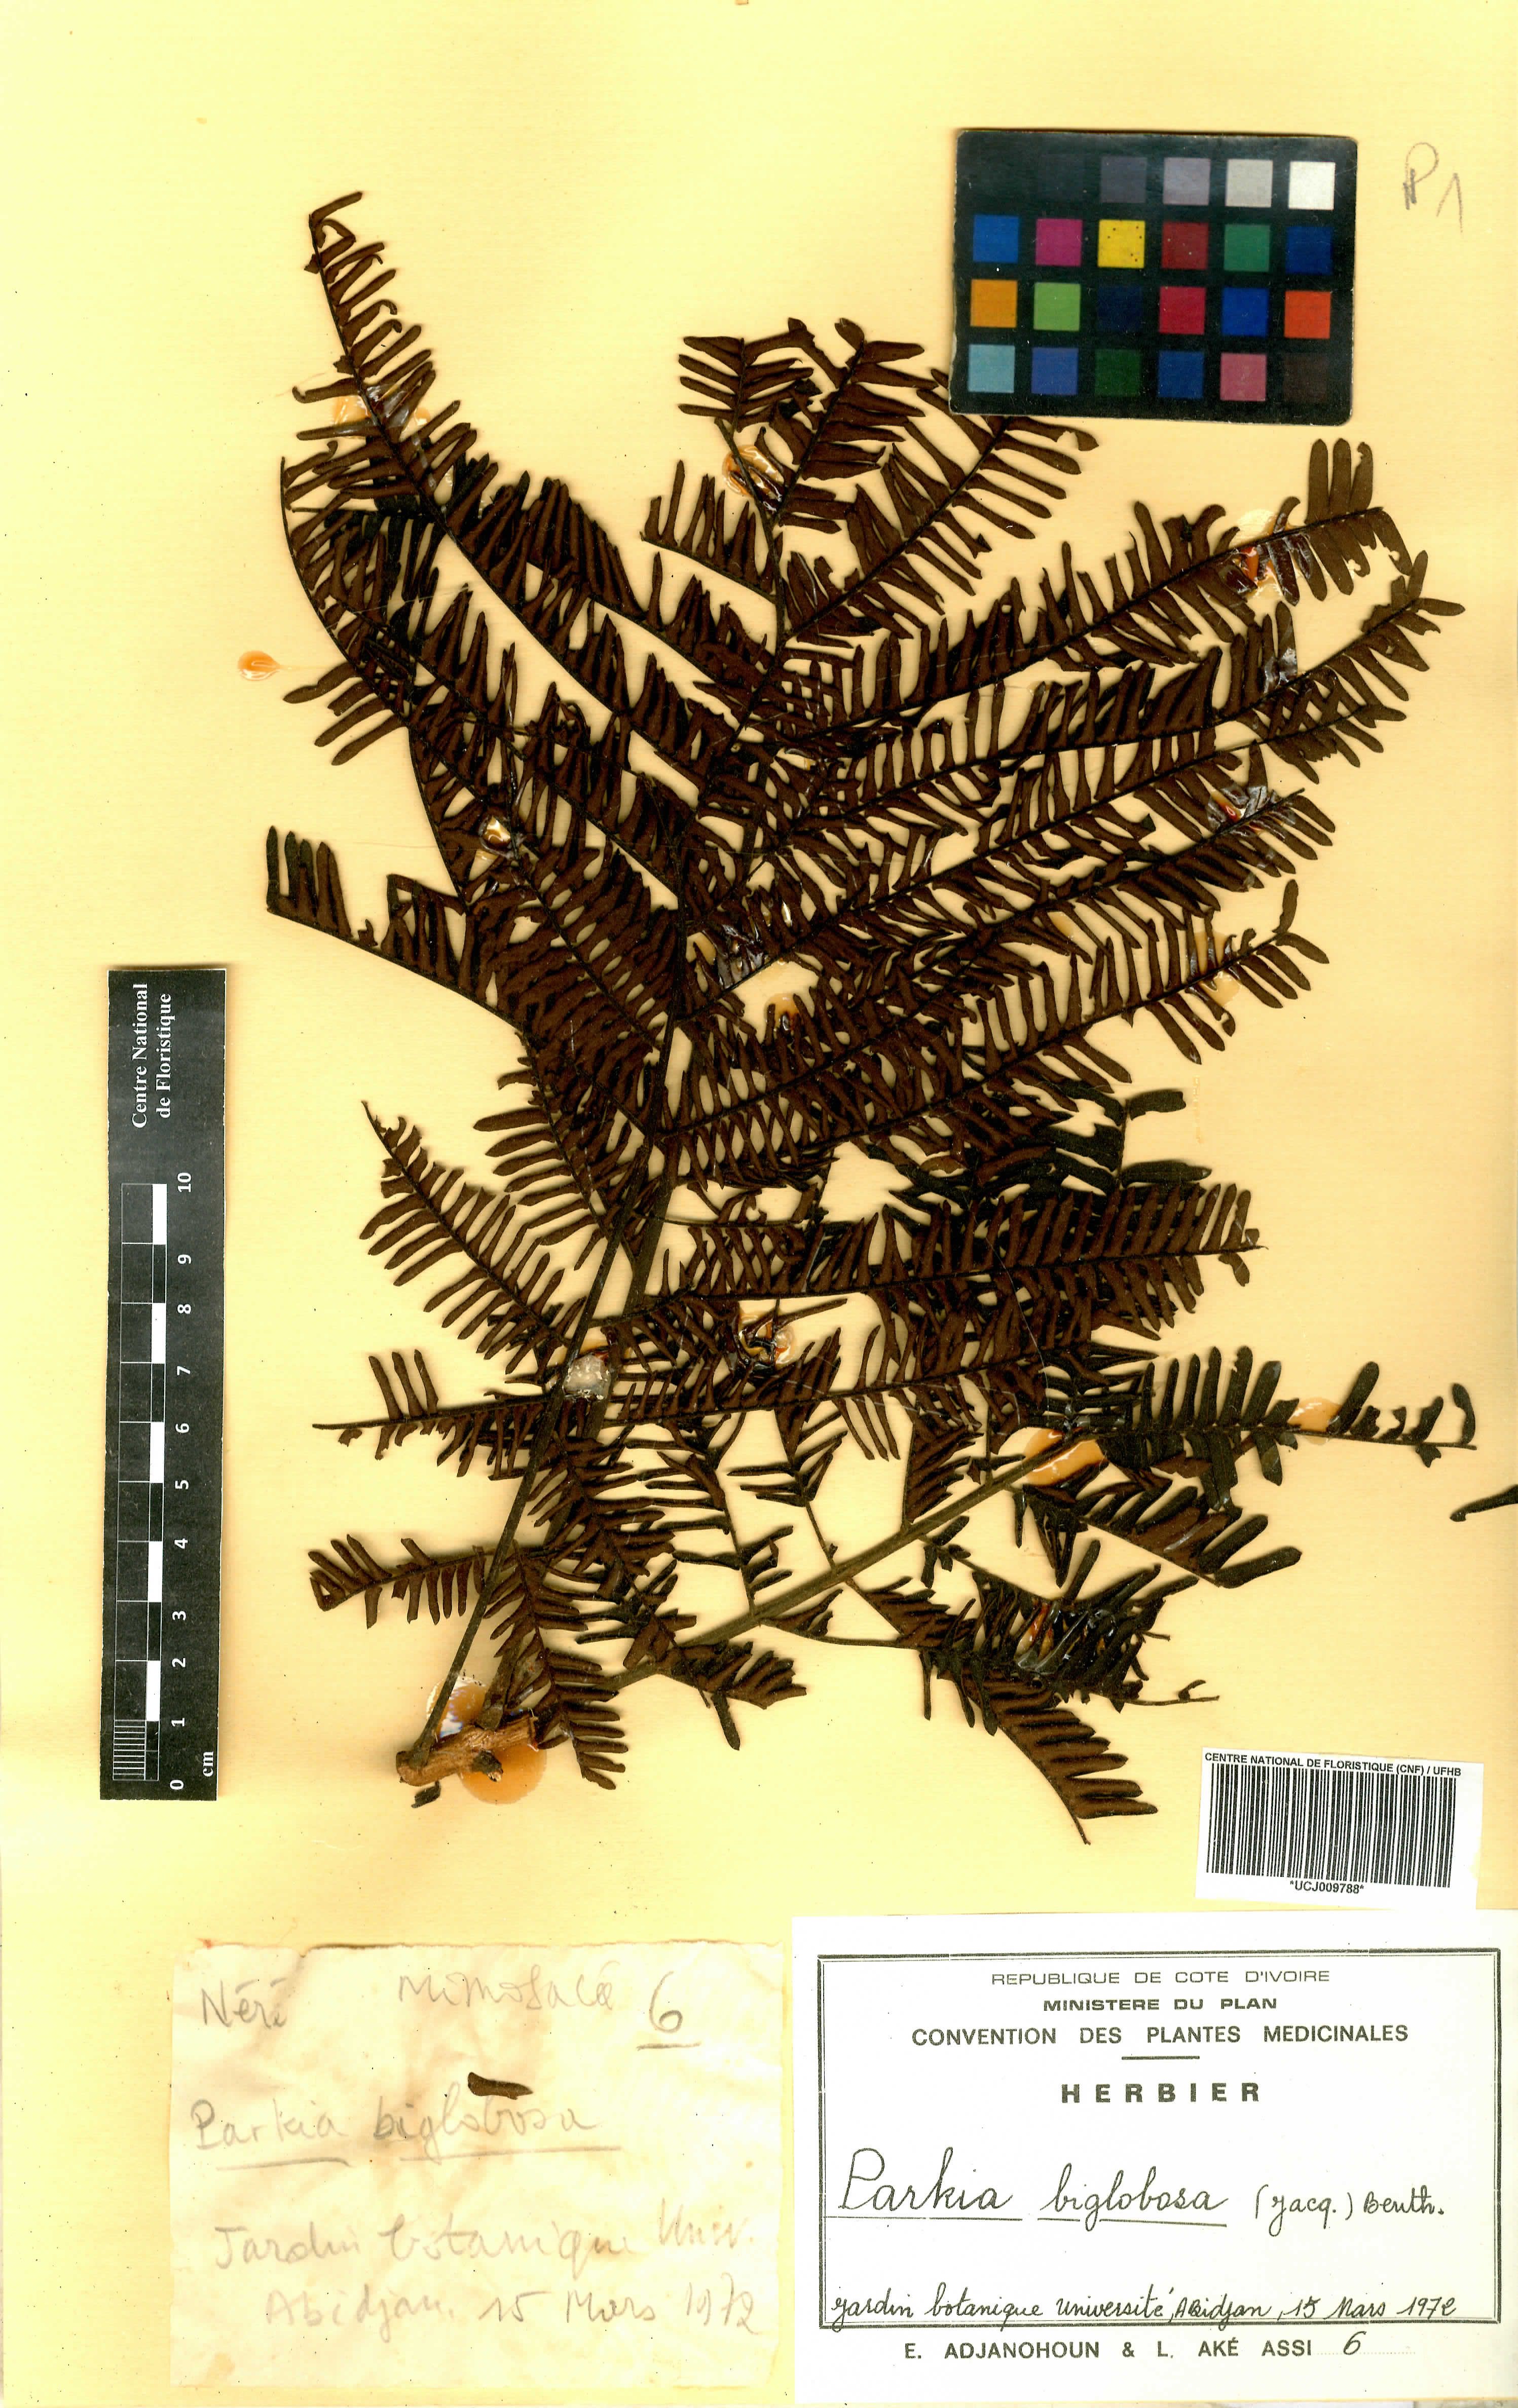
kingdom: Plantae
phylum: Tracheophyta
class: Magnoliopsida
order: Fabales
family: Fabaceae
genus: Parkia
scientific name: Parkia timoriana
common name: Legume
